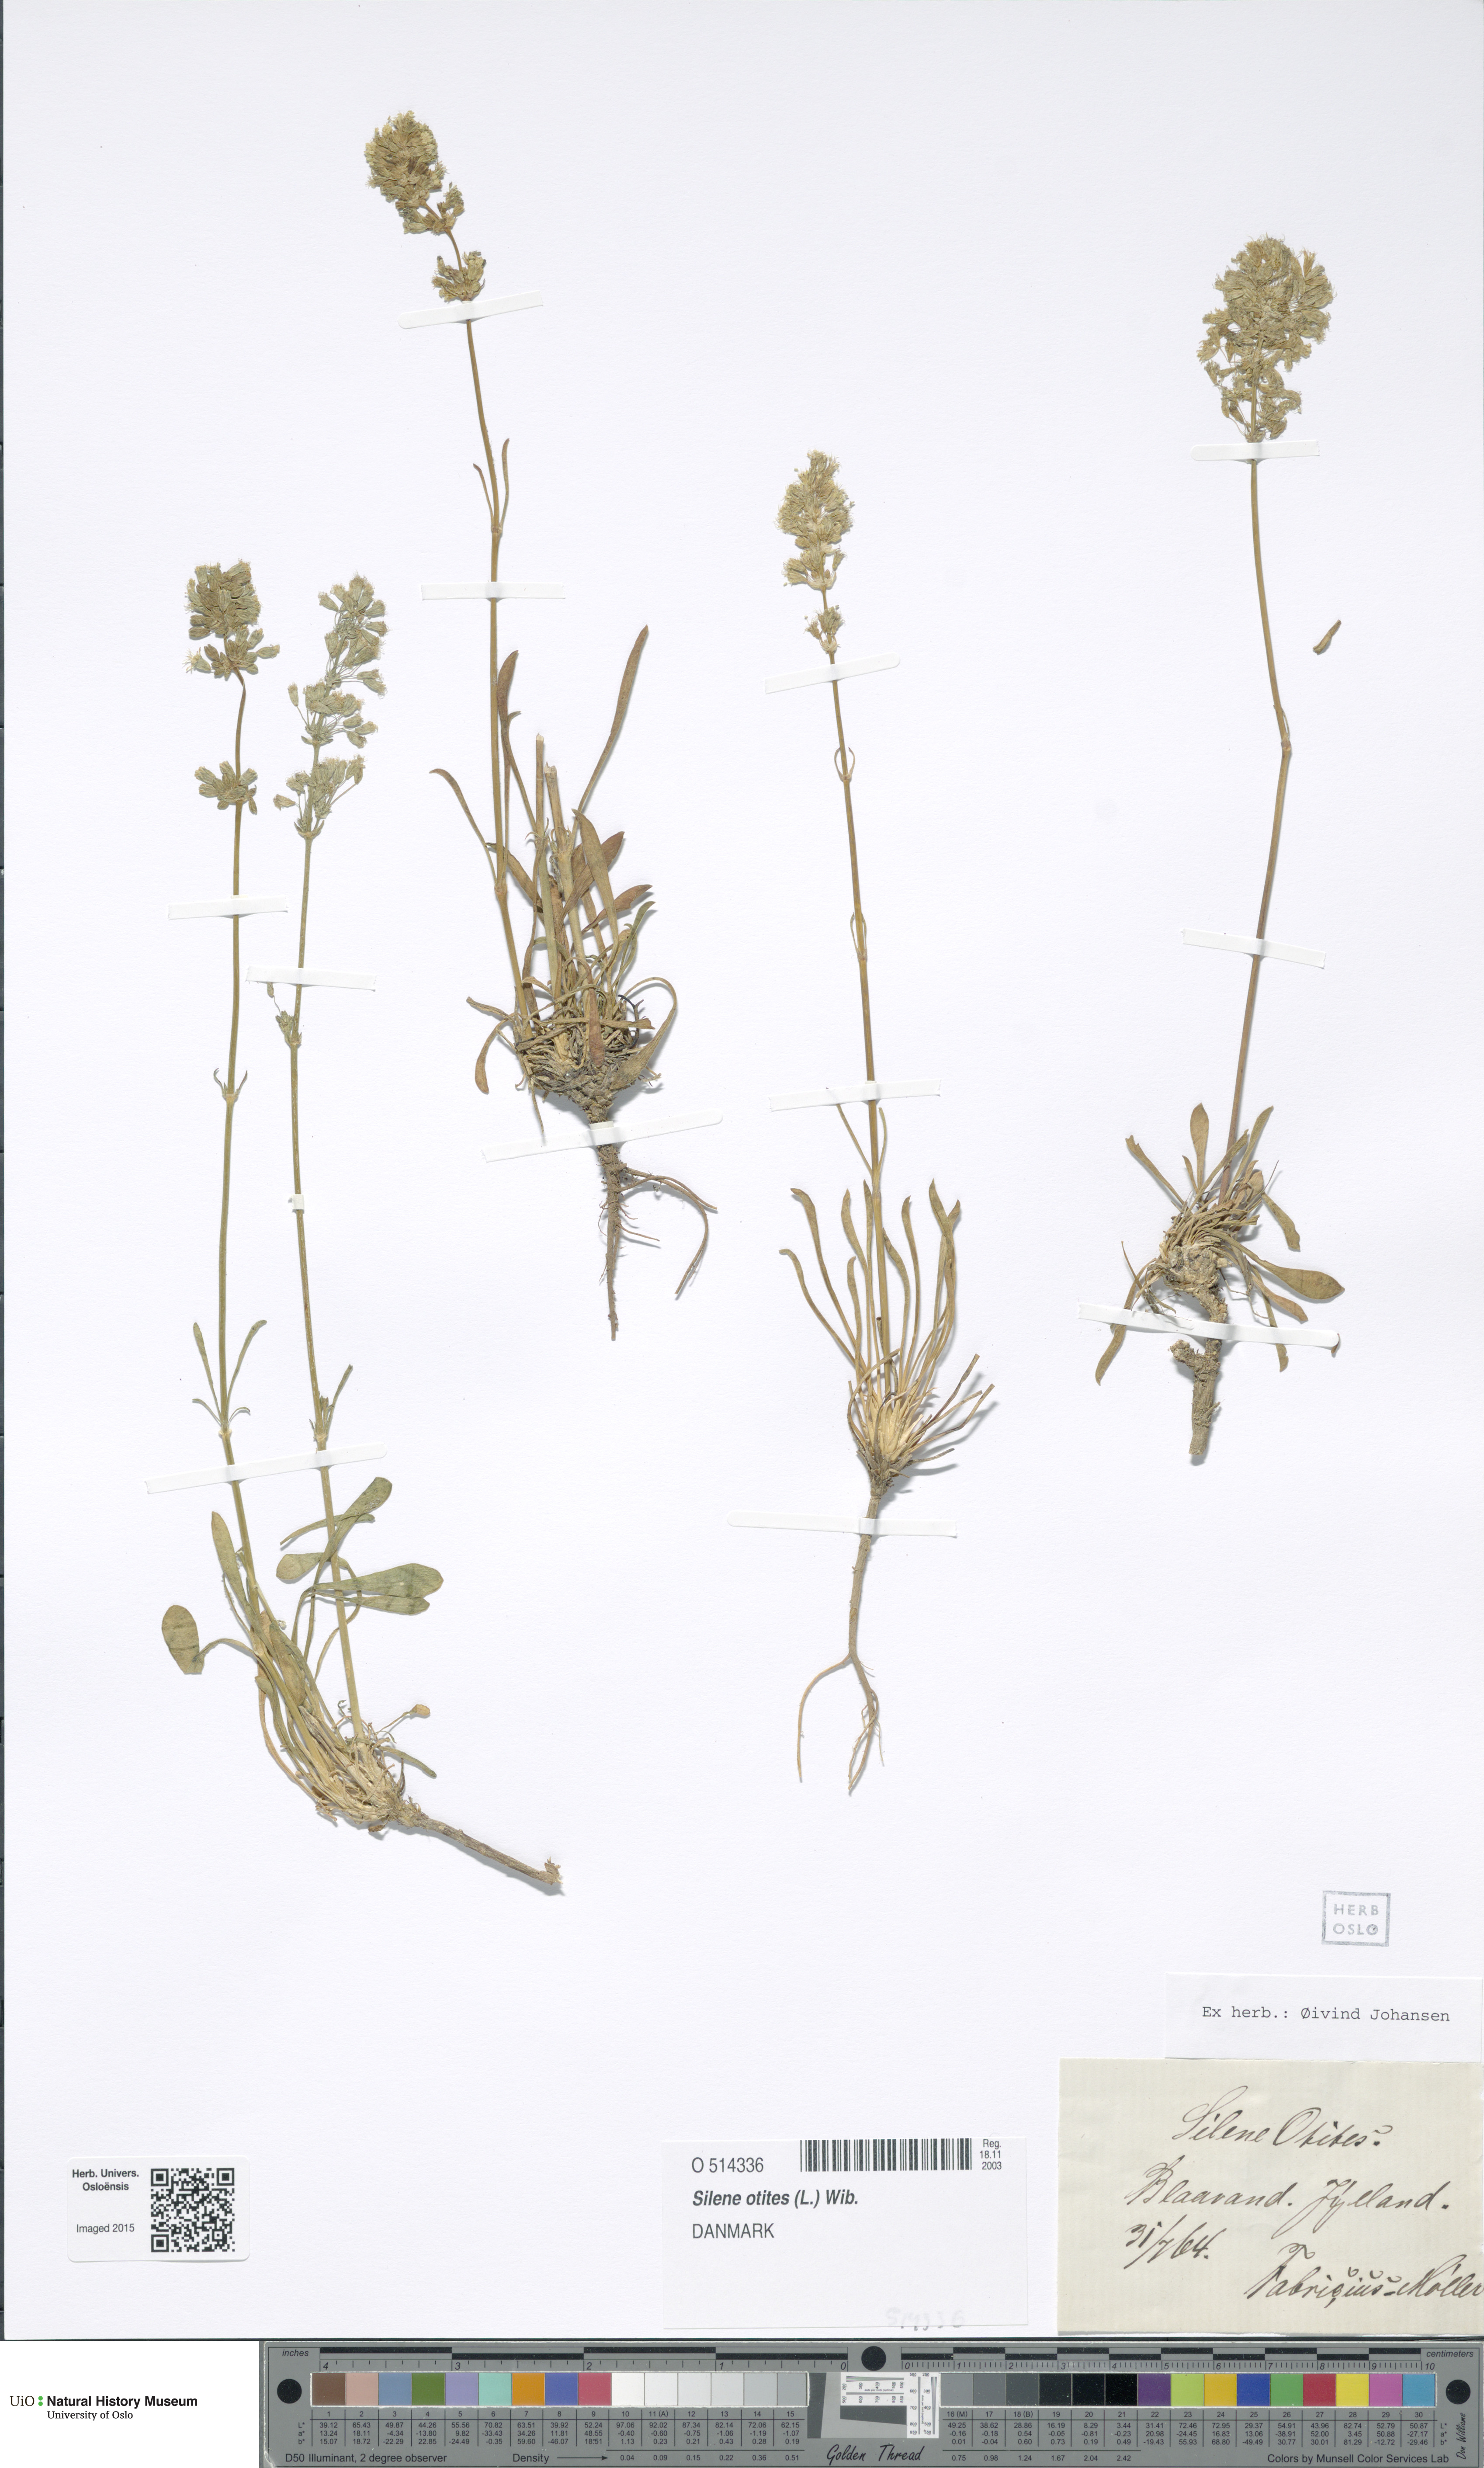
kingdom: Plantae
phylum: Tracheophyta
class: Magnoliopsida
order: Caryophyllales
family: Caryophyllaceae
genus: Silene
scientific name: Silene otites
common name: Spanish catchfly
